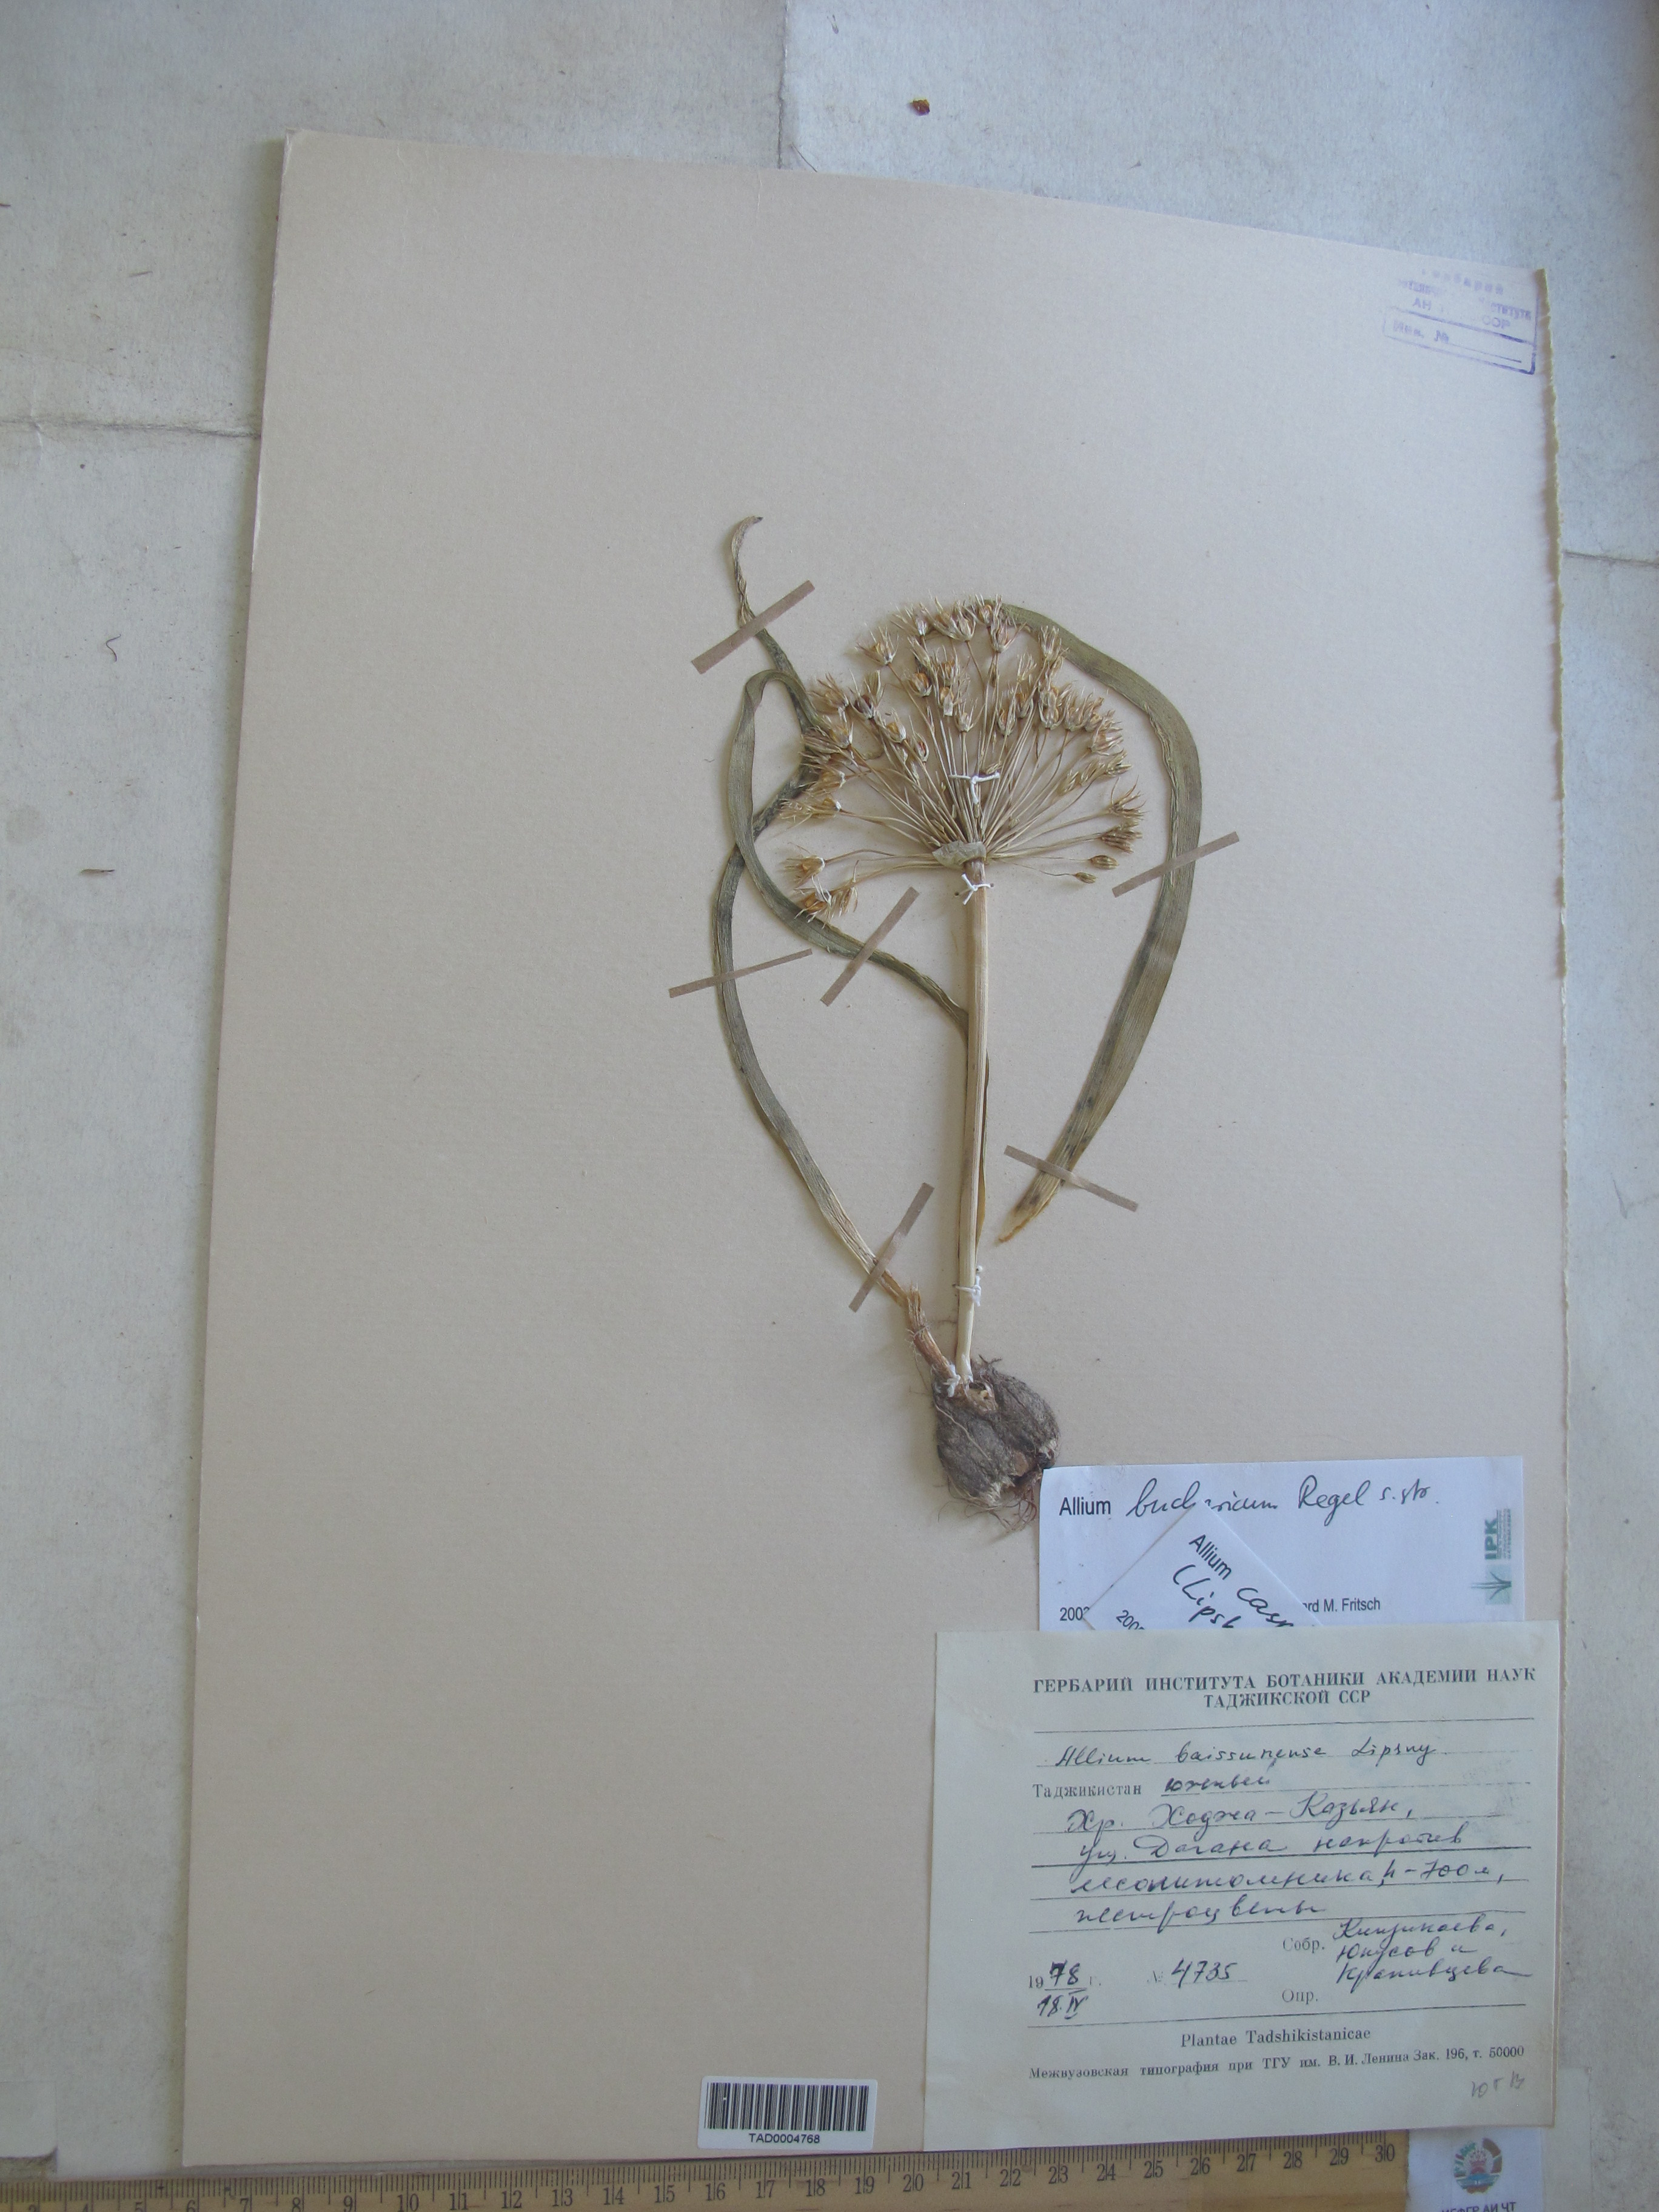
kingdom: Plantae
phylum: Tracheophyta
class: Liliopsida
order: Asparagales
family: Amaryllidaceae
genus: Allium
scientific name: Allium bucharicum
